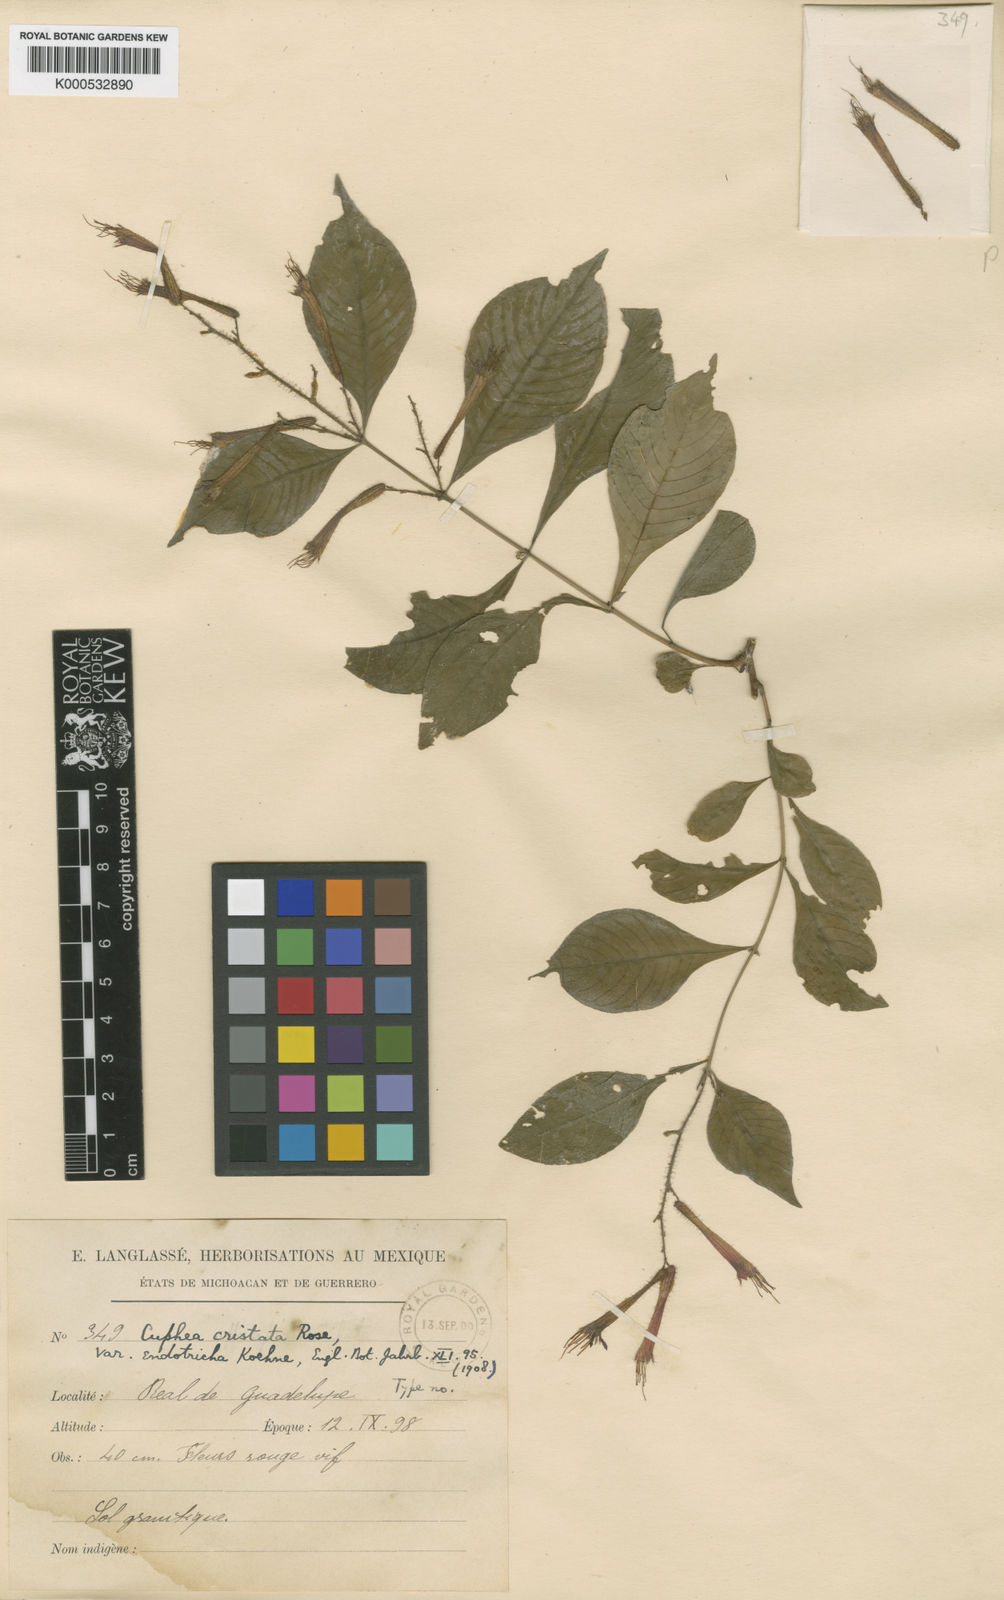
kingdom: Plantae
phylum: Tracheophyta
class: Magnoliopsida
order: Myrtales
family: Lythraceae
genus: Cuphea
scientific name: Cuphea cristata
